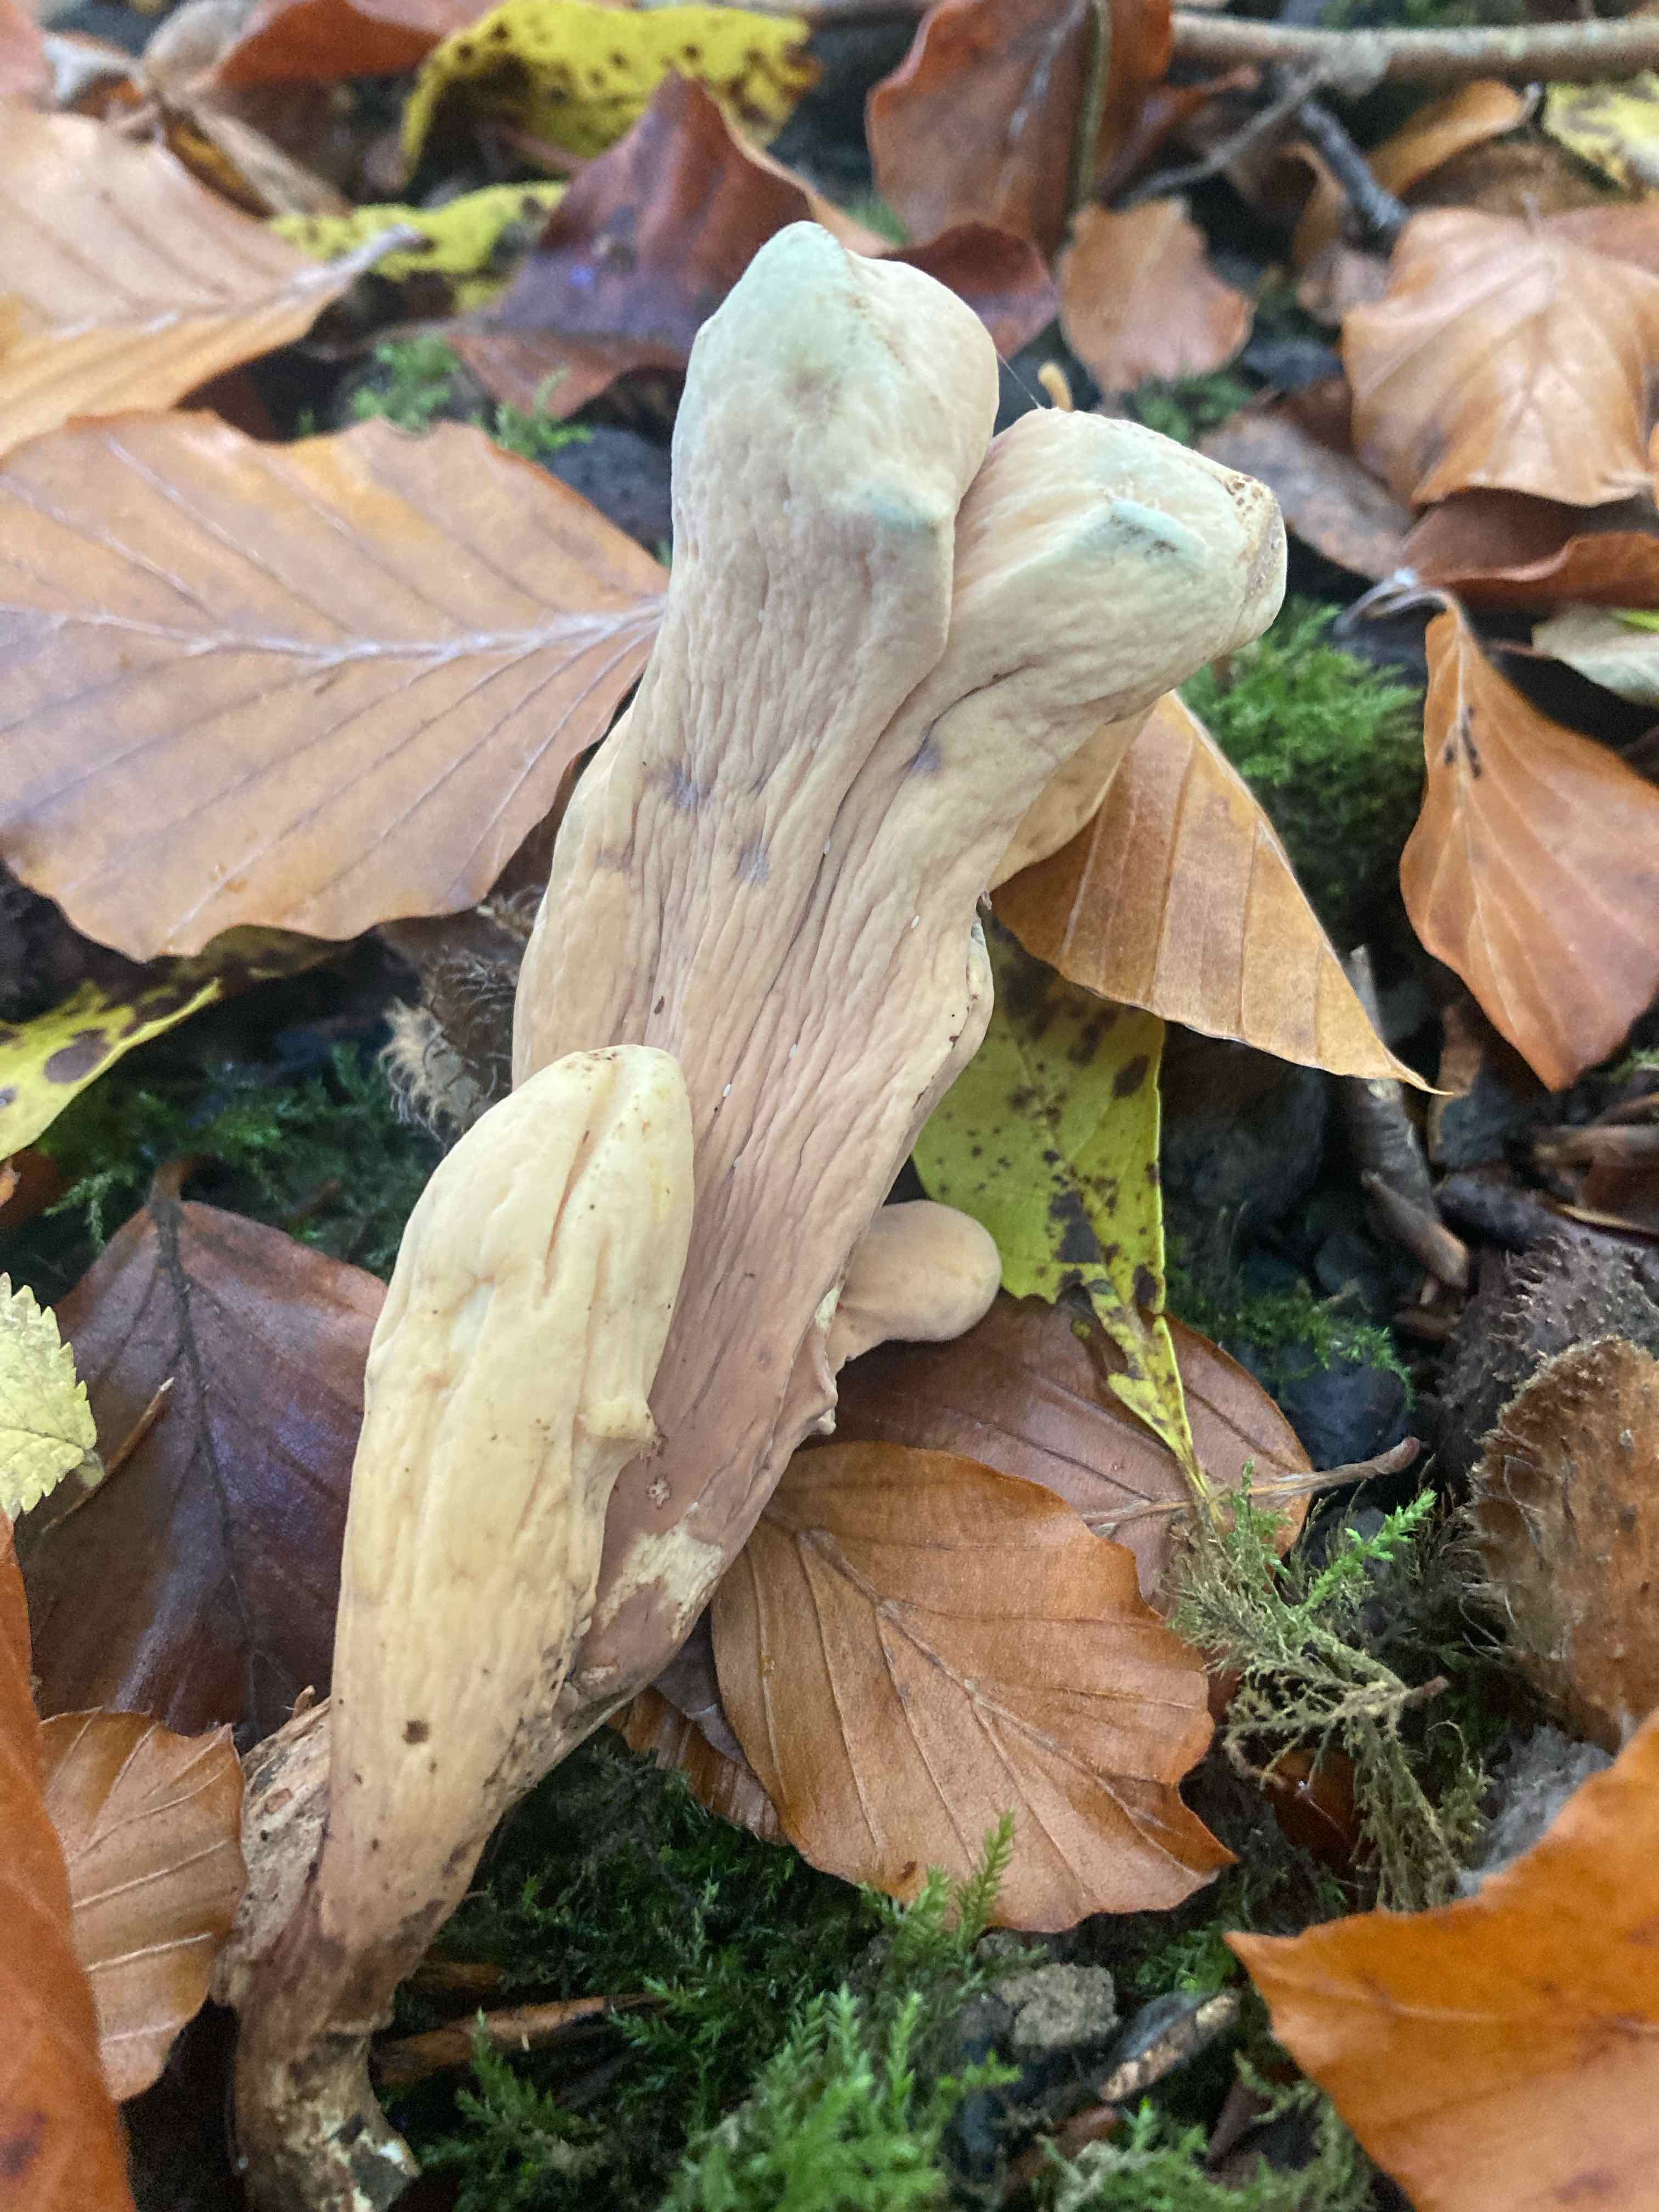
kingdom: Fungi
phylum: Basidiomycota
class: Agaricomycetes
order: Gomphales
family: Clavariadelphaceae
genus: Clavariadelphus
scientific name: Clavariadelphus pistillaris
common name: herkules-kæmpekølle
